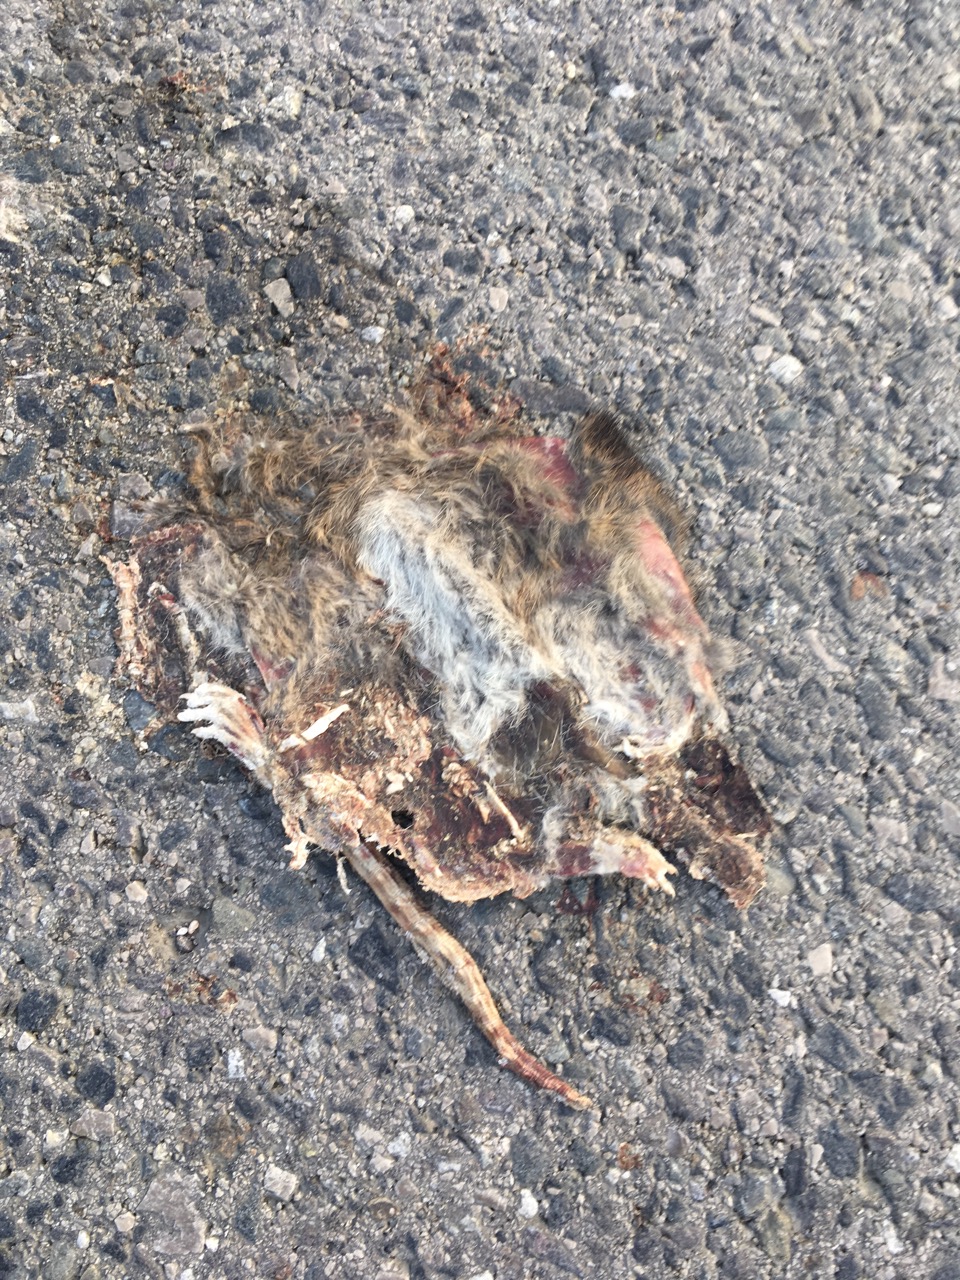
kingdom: Animalia
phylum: Chordata
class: Mammalia
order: Rodentia
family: Muridae
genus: Apodemus
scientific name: Apodemus
